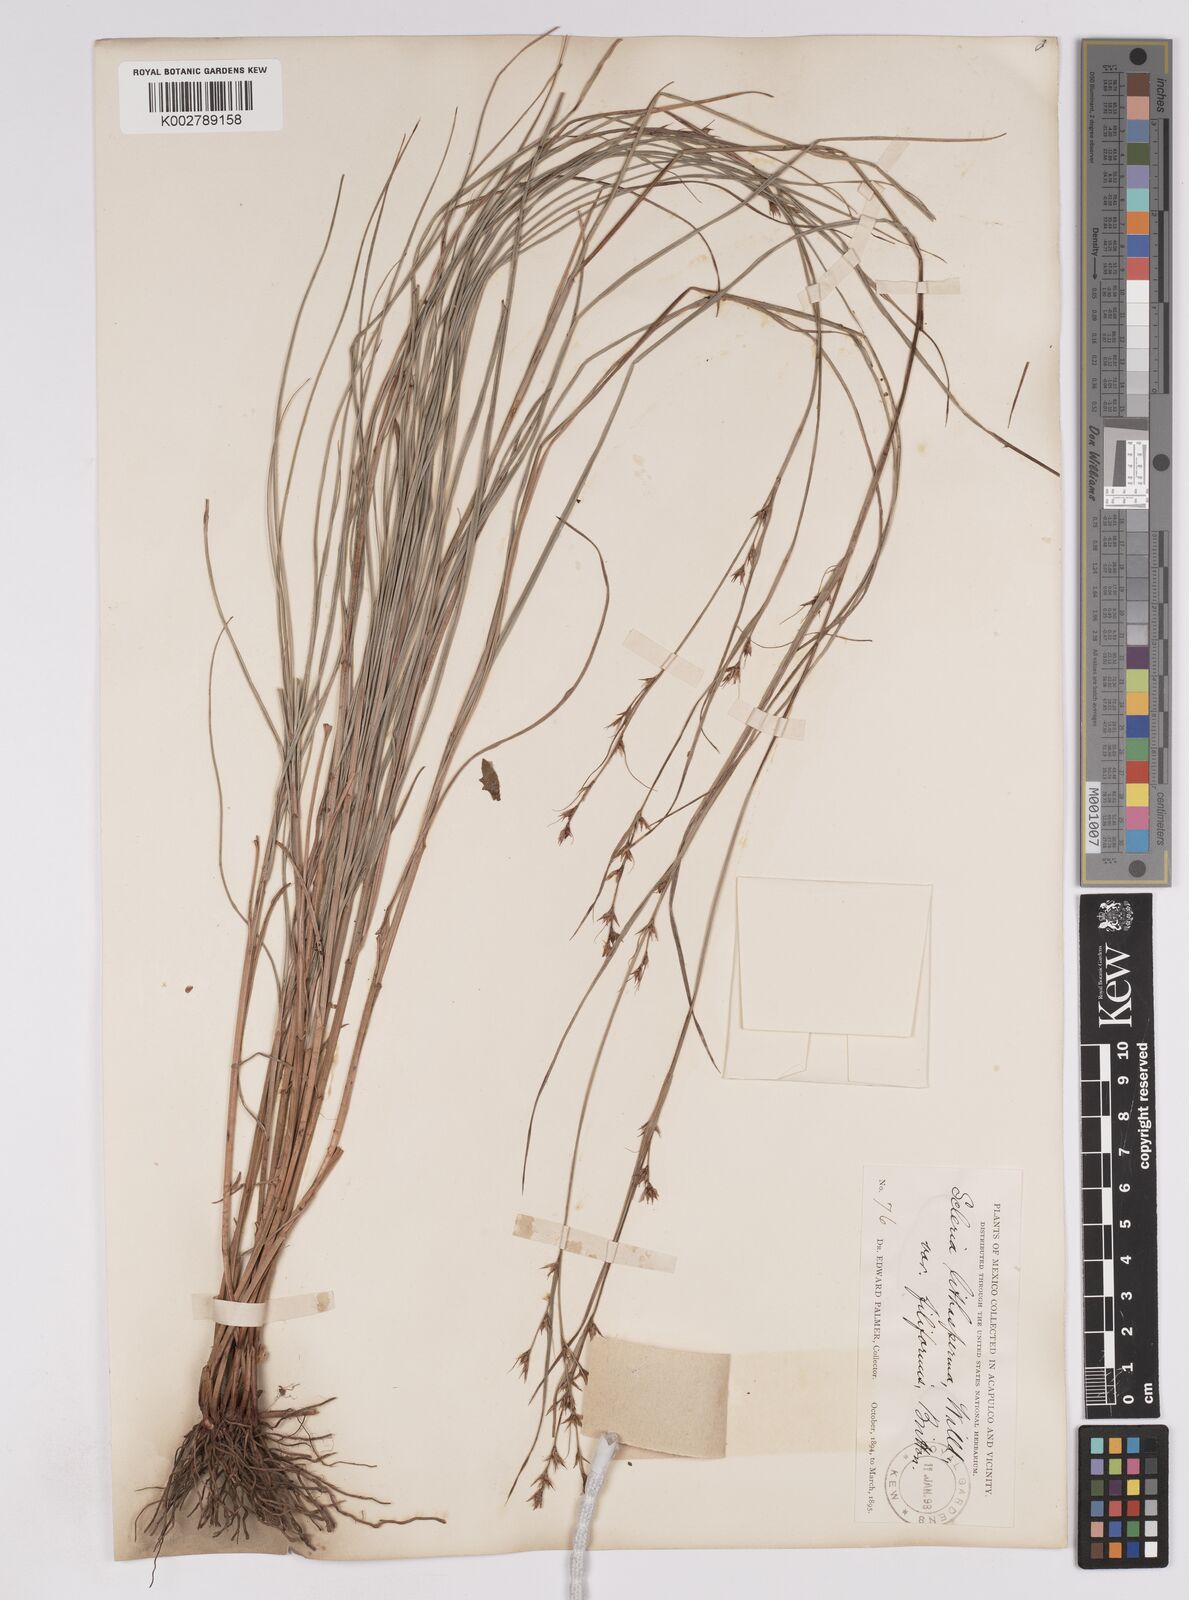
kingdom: Plantae
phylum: Tracheophyta
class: Liliopsida
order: Poales
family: Cyperaceae
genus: Scleria
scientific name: Scleria lithosperma
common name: Florida keys nut-rush
